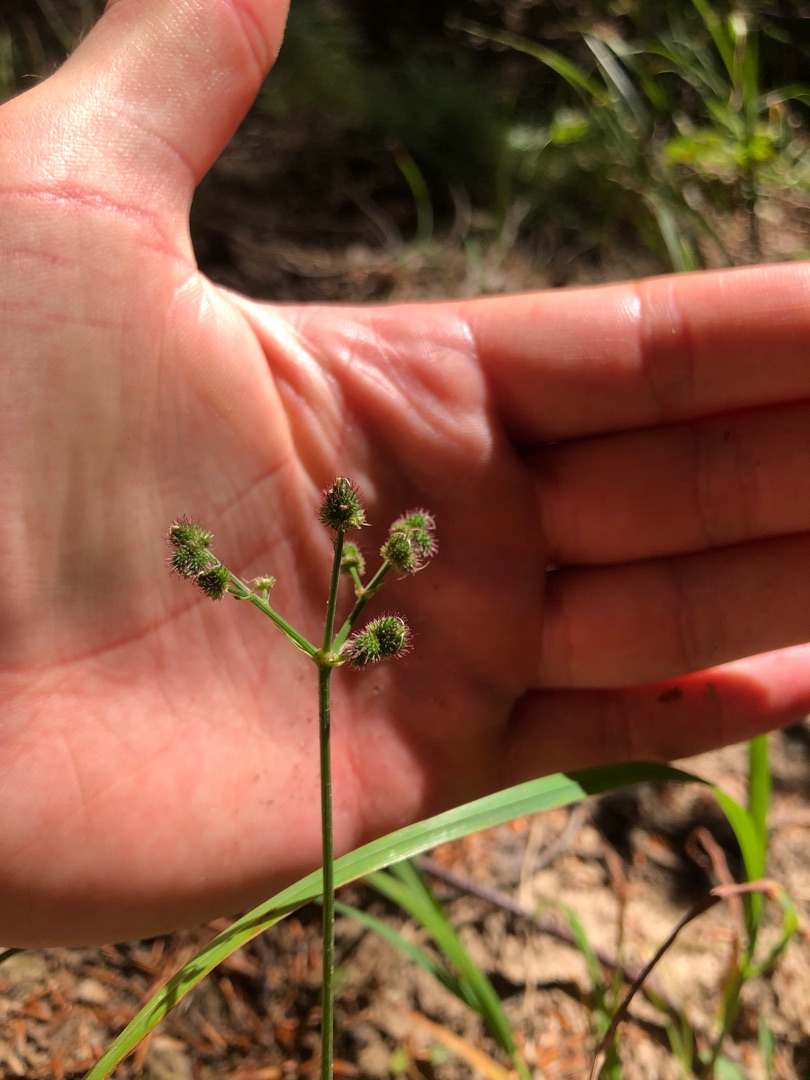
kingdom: Plantae
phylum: Tracheophyta
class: Magnoliopsida
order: Apiales
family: Apiaceae
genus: Sanicula
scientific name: Sanicula europaea
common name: Sanikel
